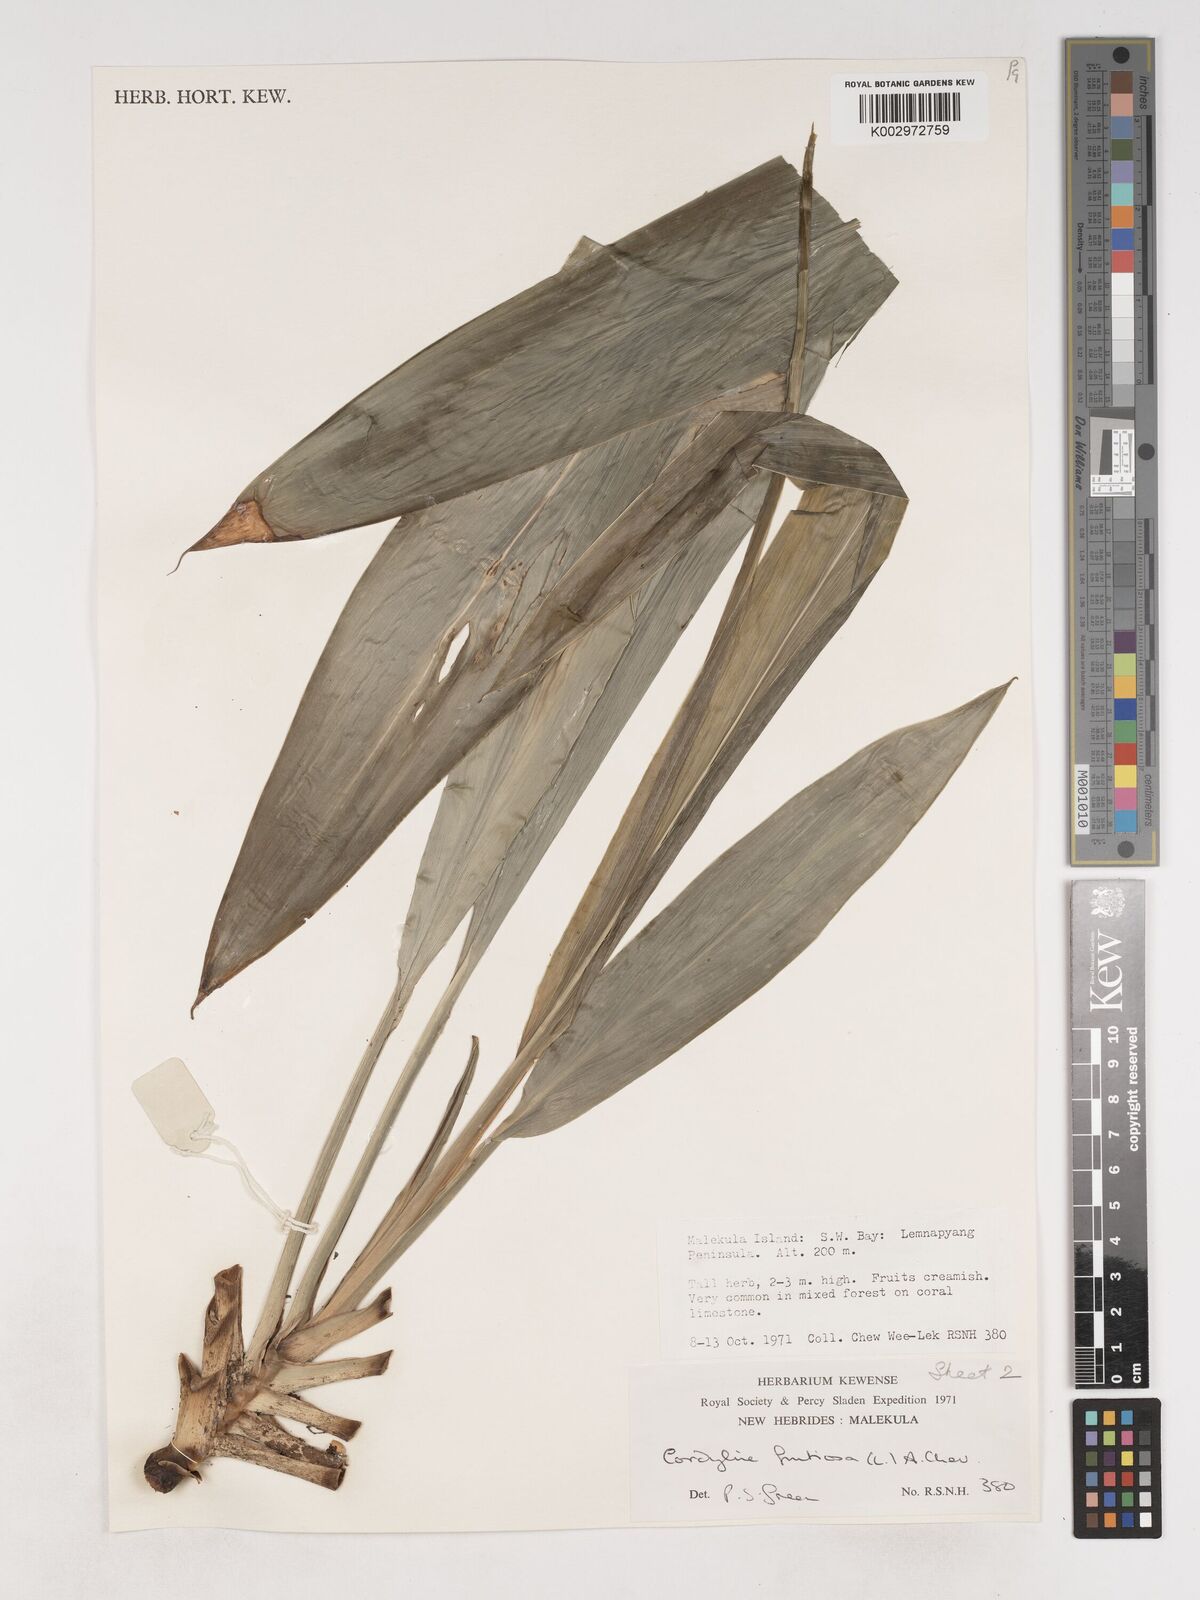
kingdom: Plantae
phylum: Tracheophyta
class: Liliopsida
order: Asparagales
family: Asparagaceae
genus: Cordyline
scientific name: Cordyline fruticosa
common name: Good-luck-plant
